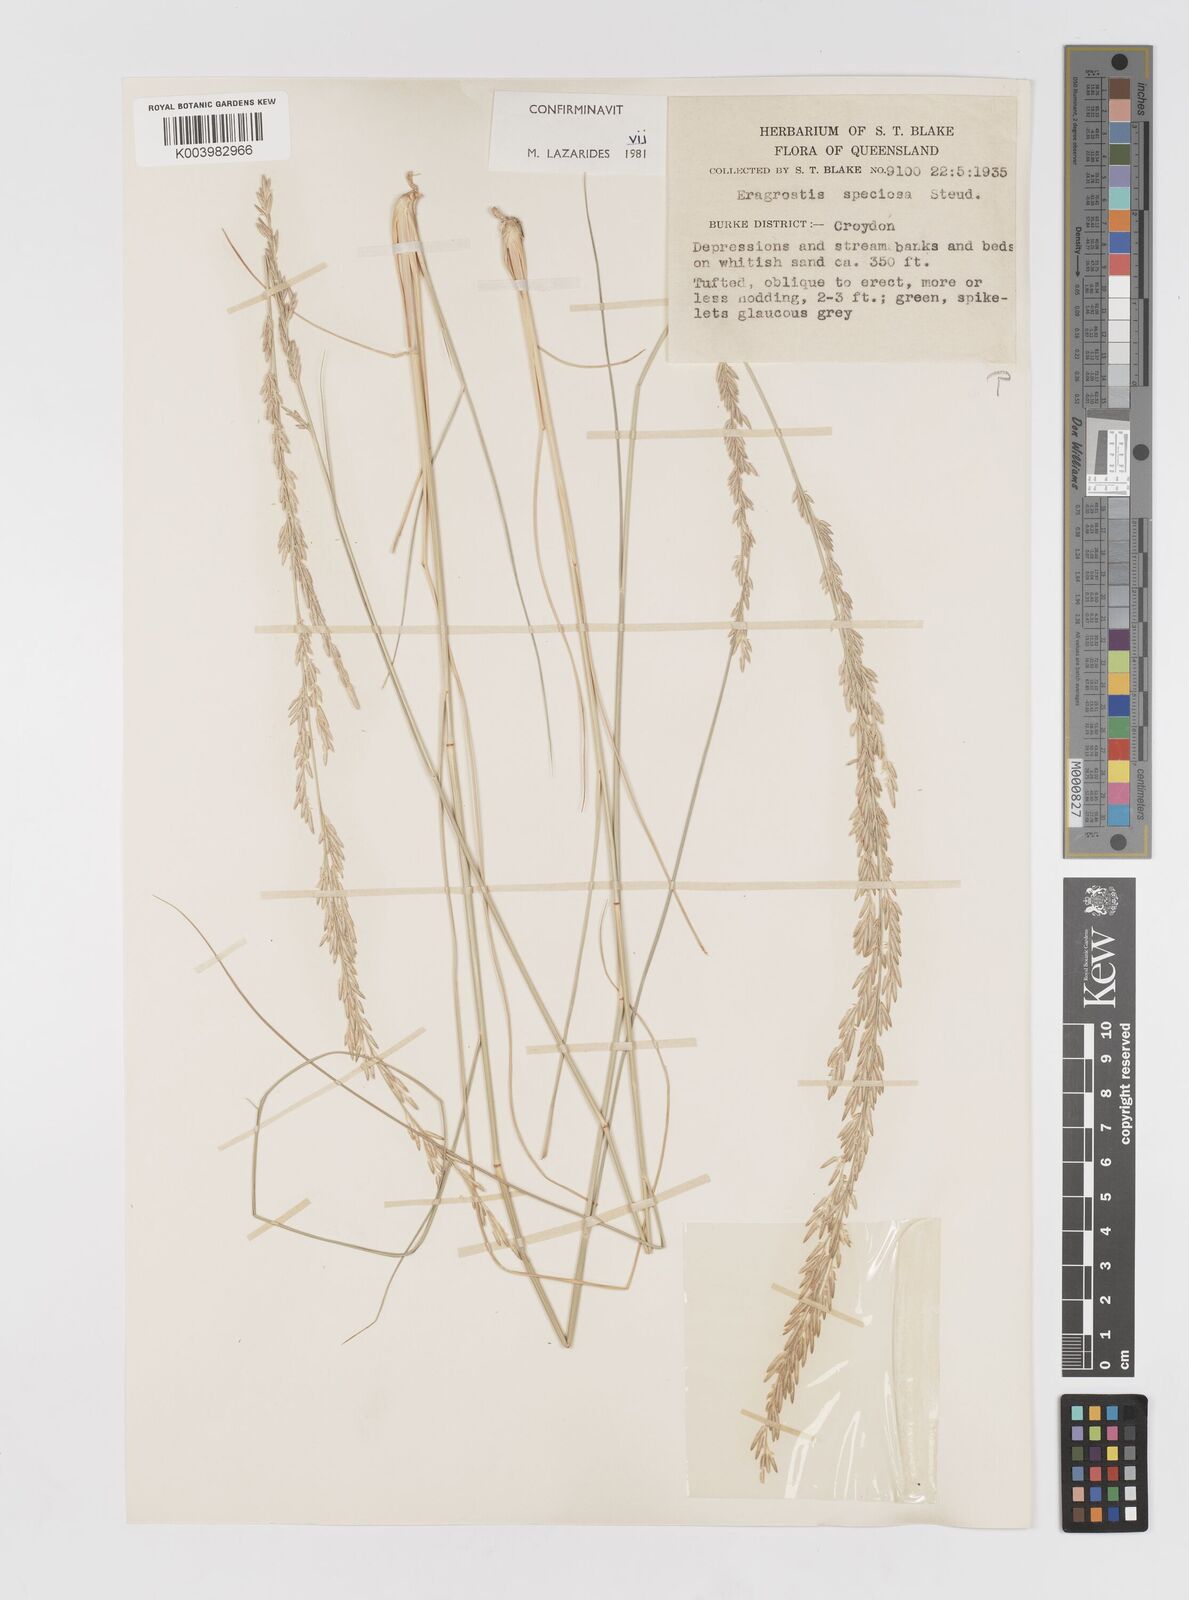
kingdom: Plantae
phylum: Tracheophyta
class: Liliopsida
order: Poales
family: Poaceae
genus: Eragrostis
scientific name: Eragrostis speciosa
